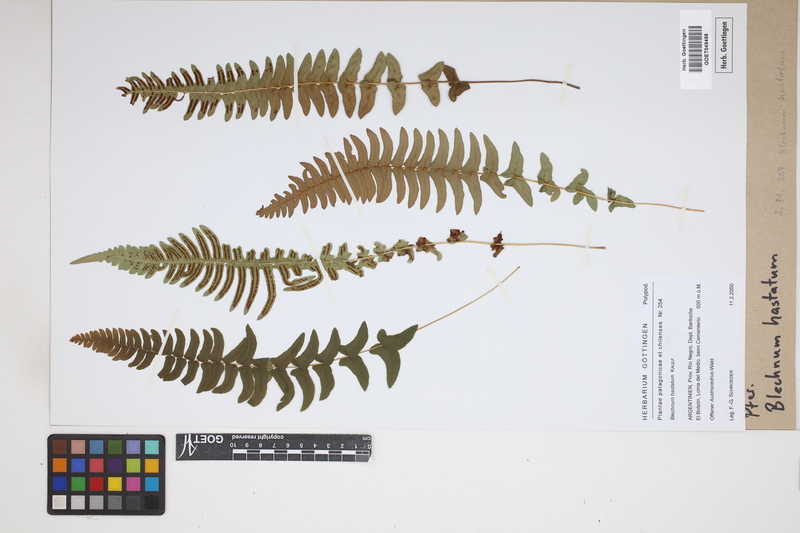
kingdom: Plantae
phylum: Tracheophyta
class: Polypodiopsida
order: Polypodiales
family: Blechnaceae
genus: Blechnum
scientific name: Blechnum hastatum
